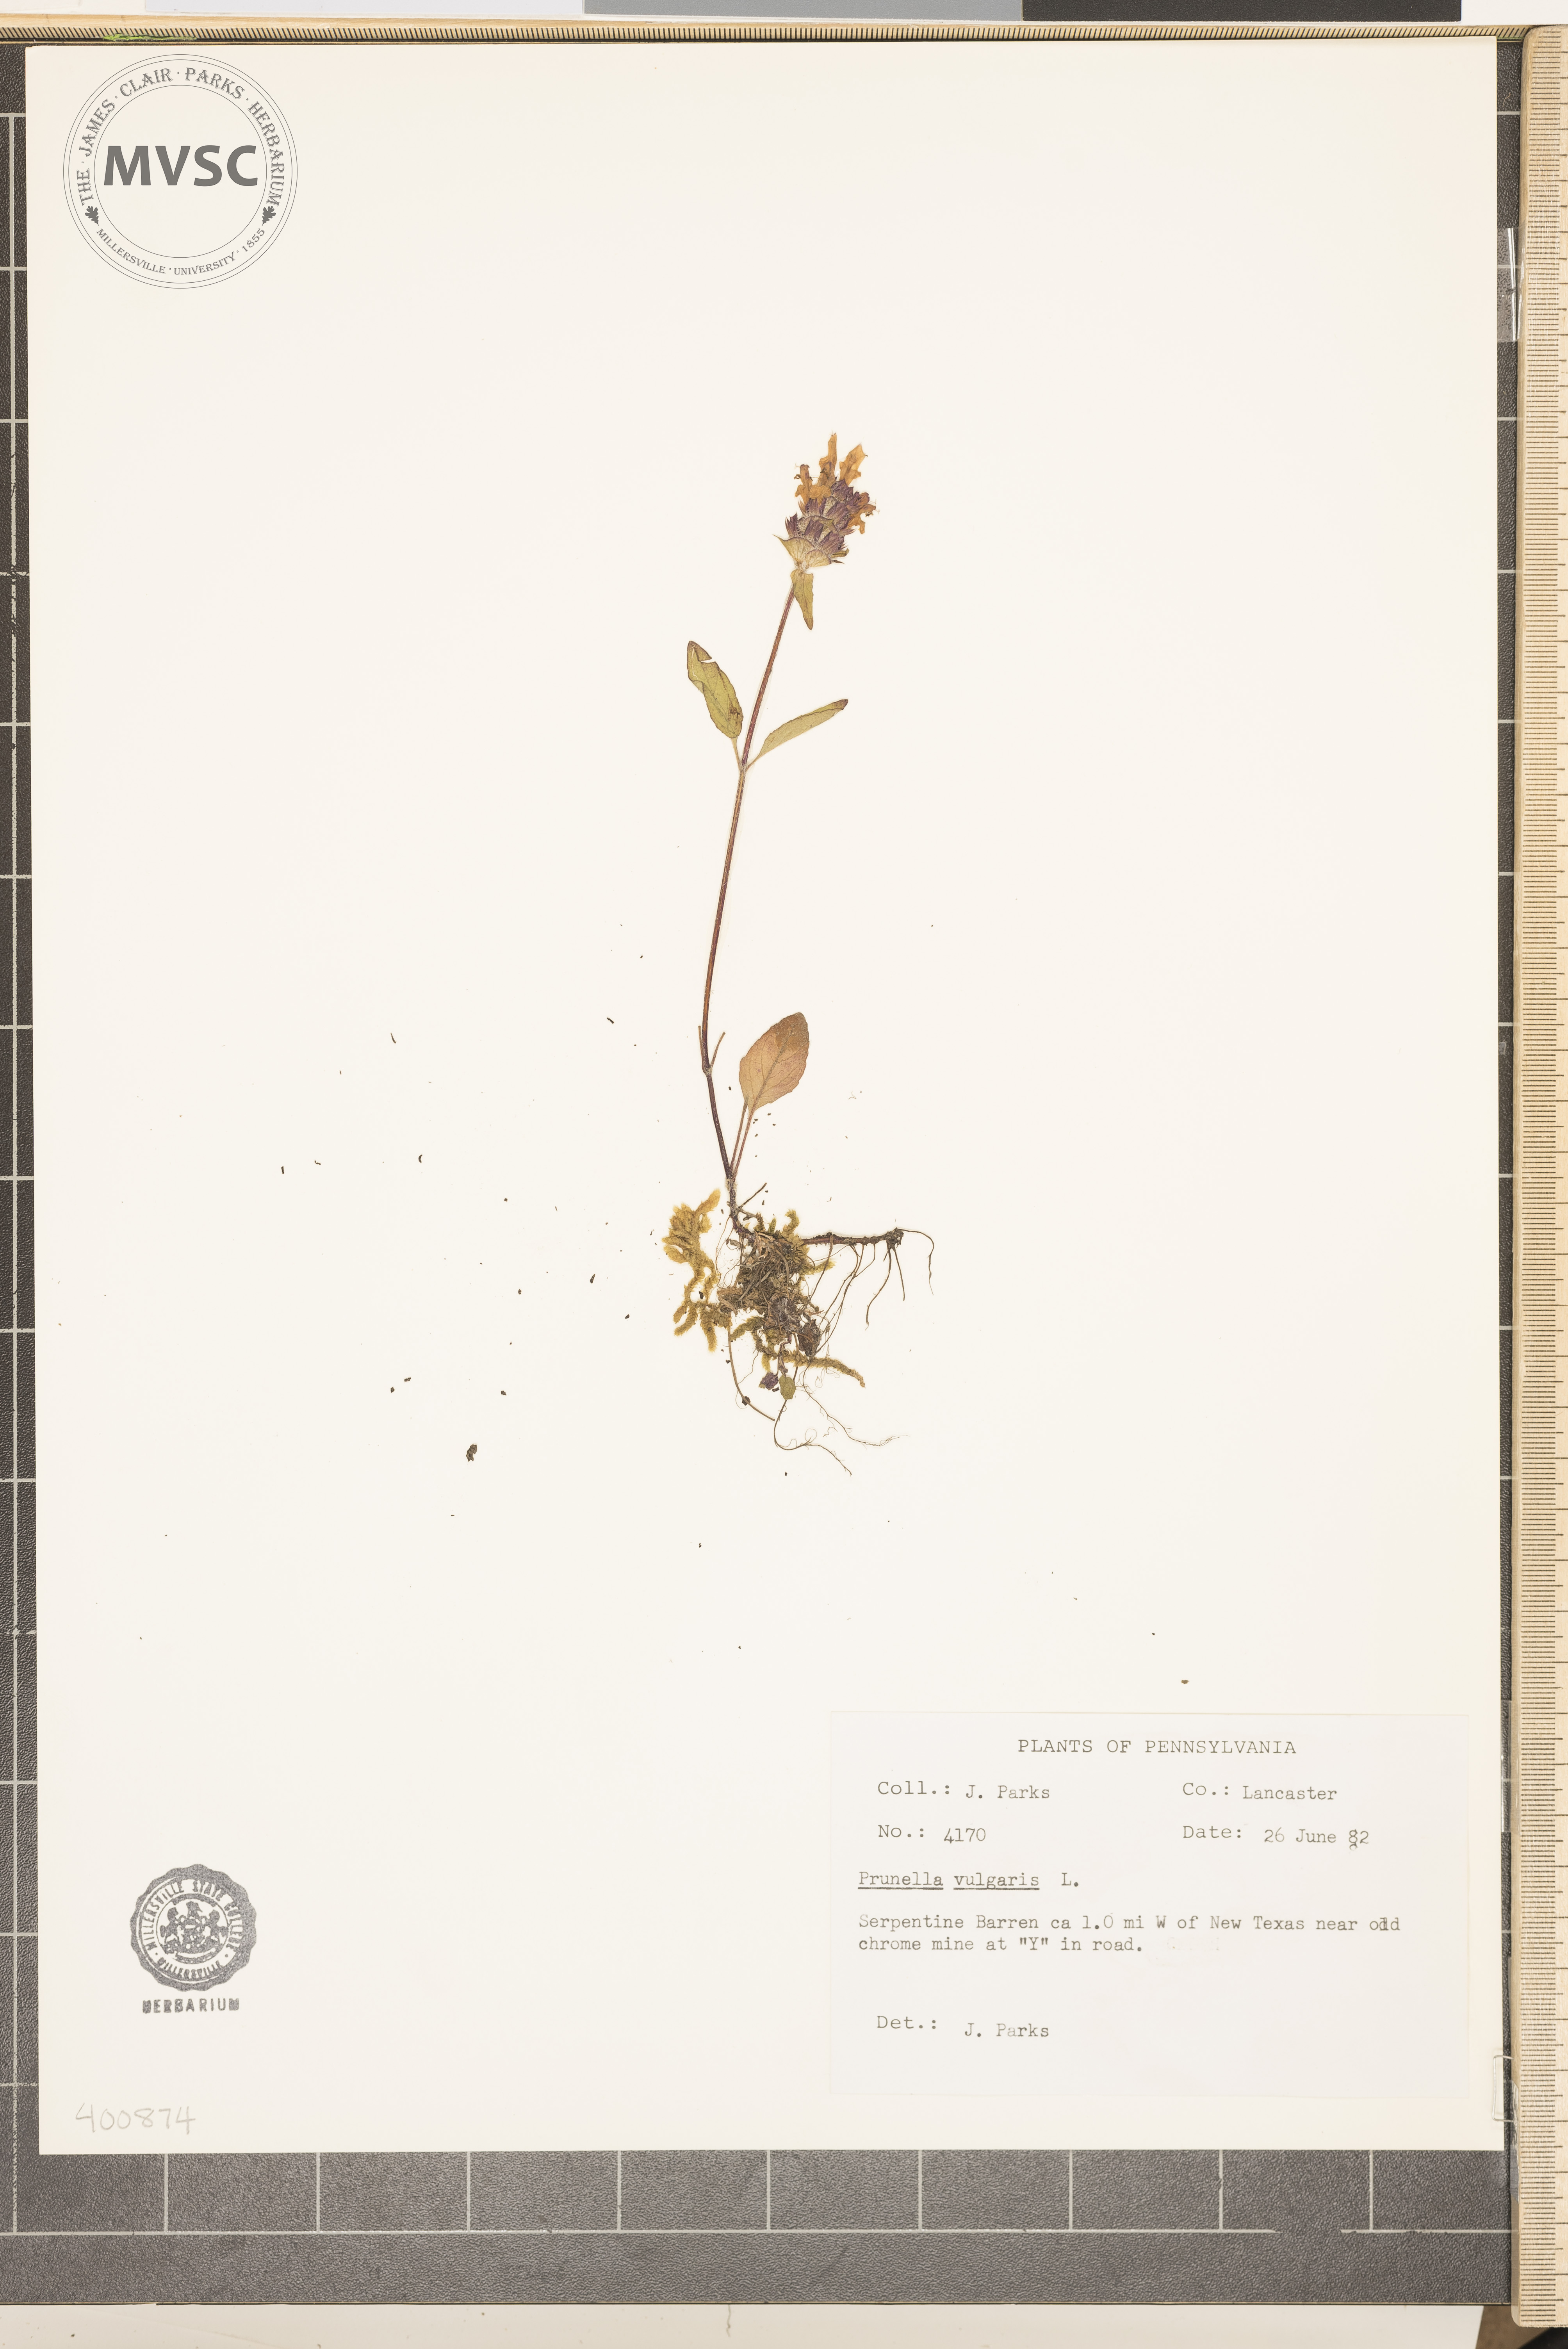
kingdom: Plantae
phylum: Tracheophyta
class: Magnoliopsida
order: Lamiales
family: Lamiaceae
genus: Prunella
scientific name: Prunella vulgaris
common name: Heal-all
